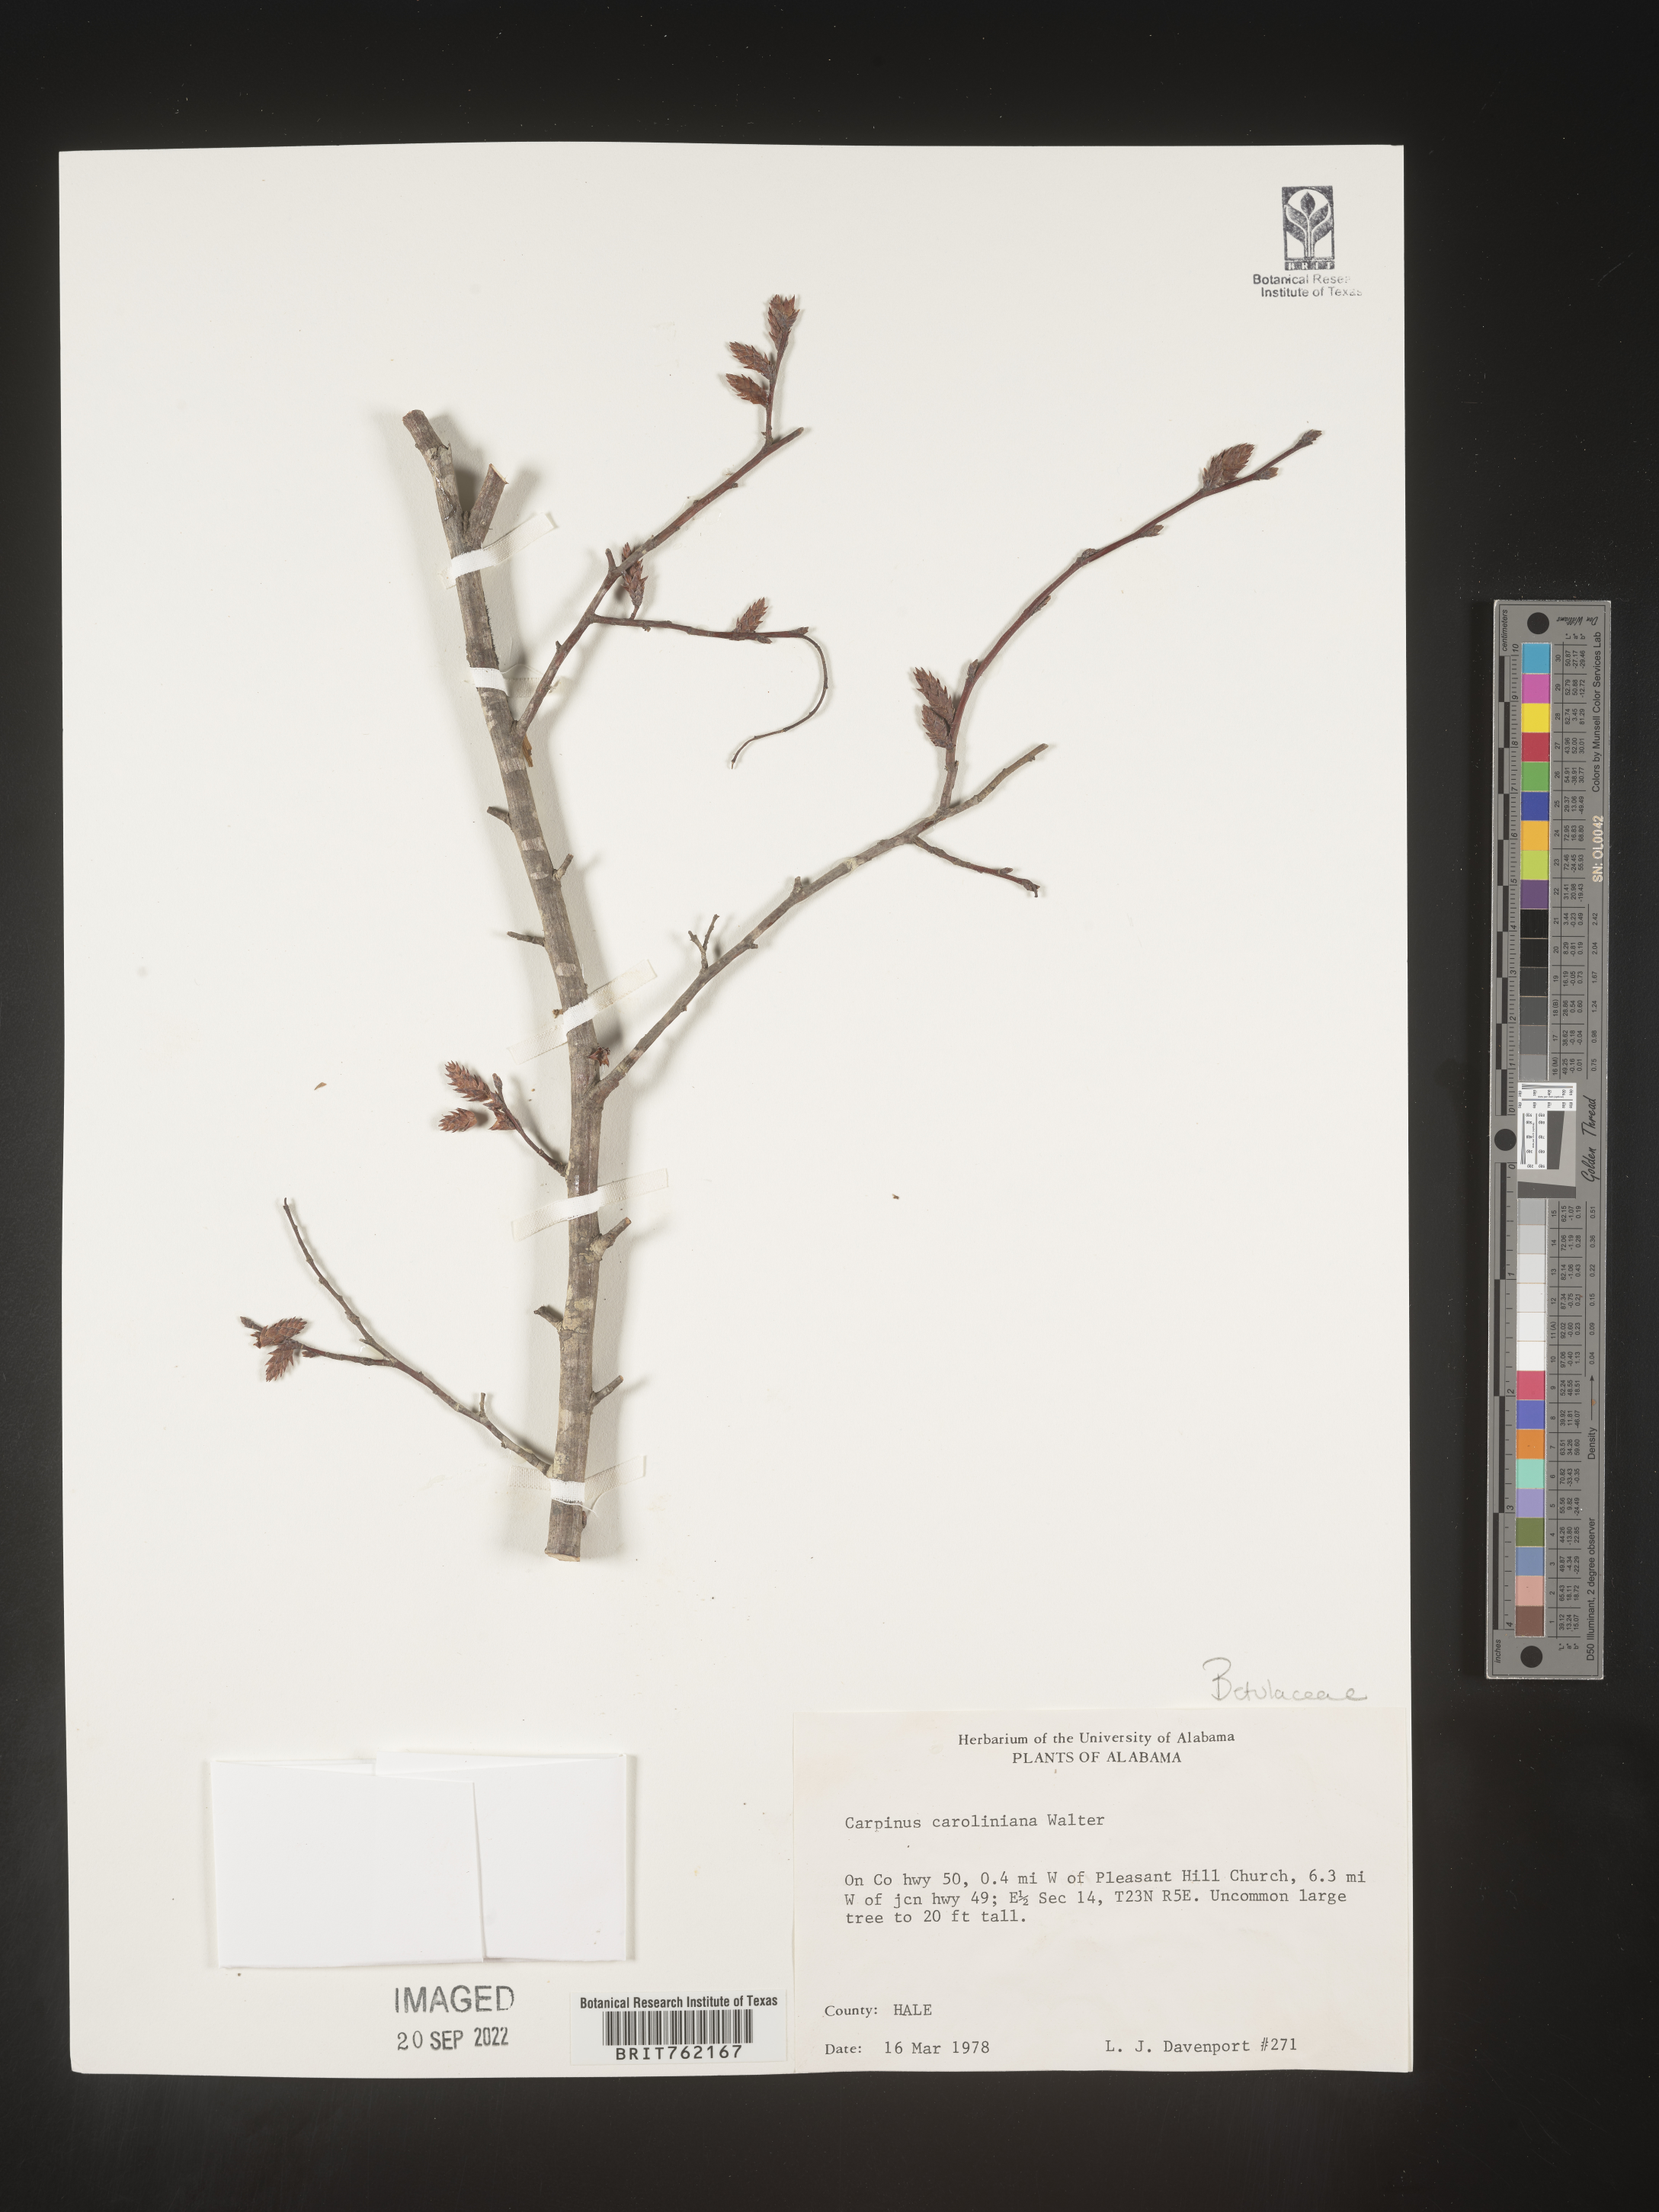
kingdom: Plantae
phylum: Tracheophyta
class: Magnoliopsida
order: Fagales
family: Betulaceae
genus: Carpinus
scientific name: Carpinus caroliniana
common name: American hornbeam
